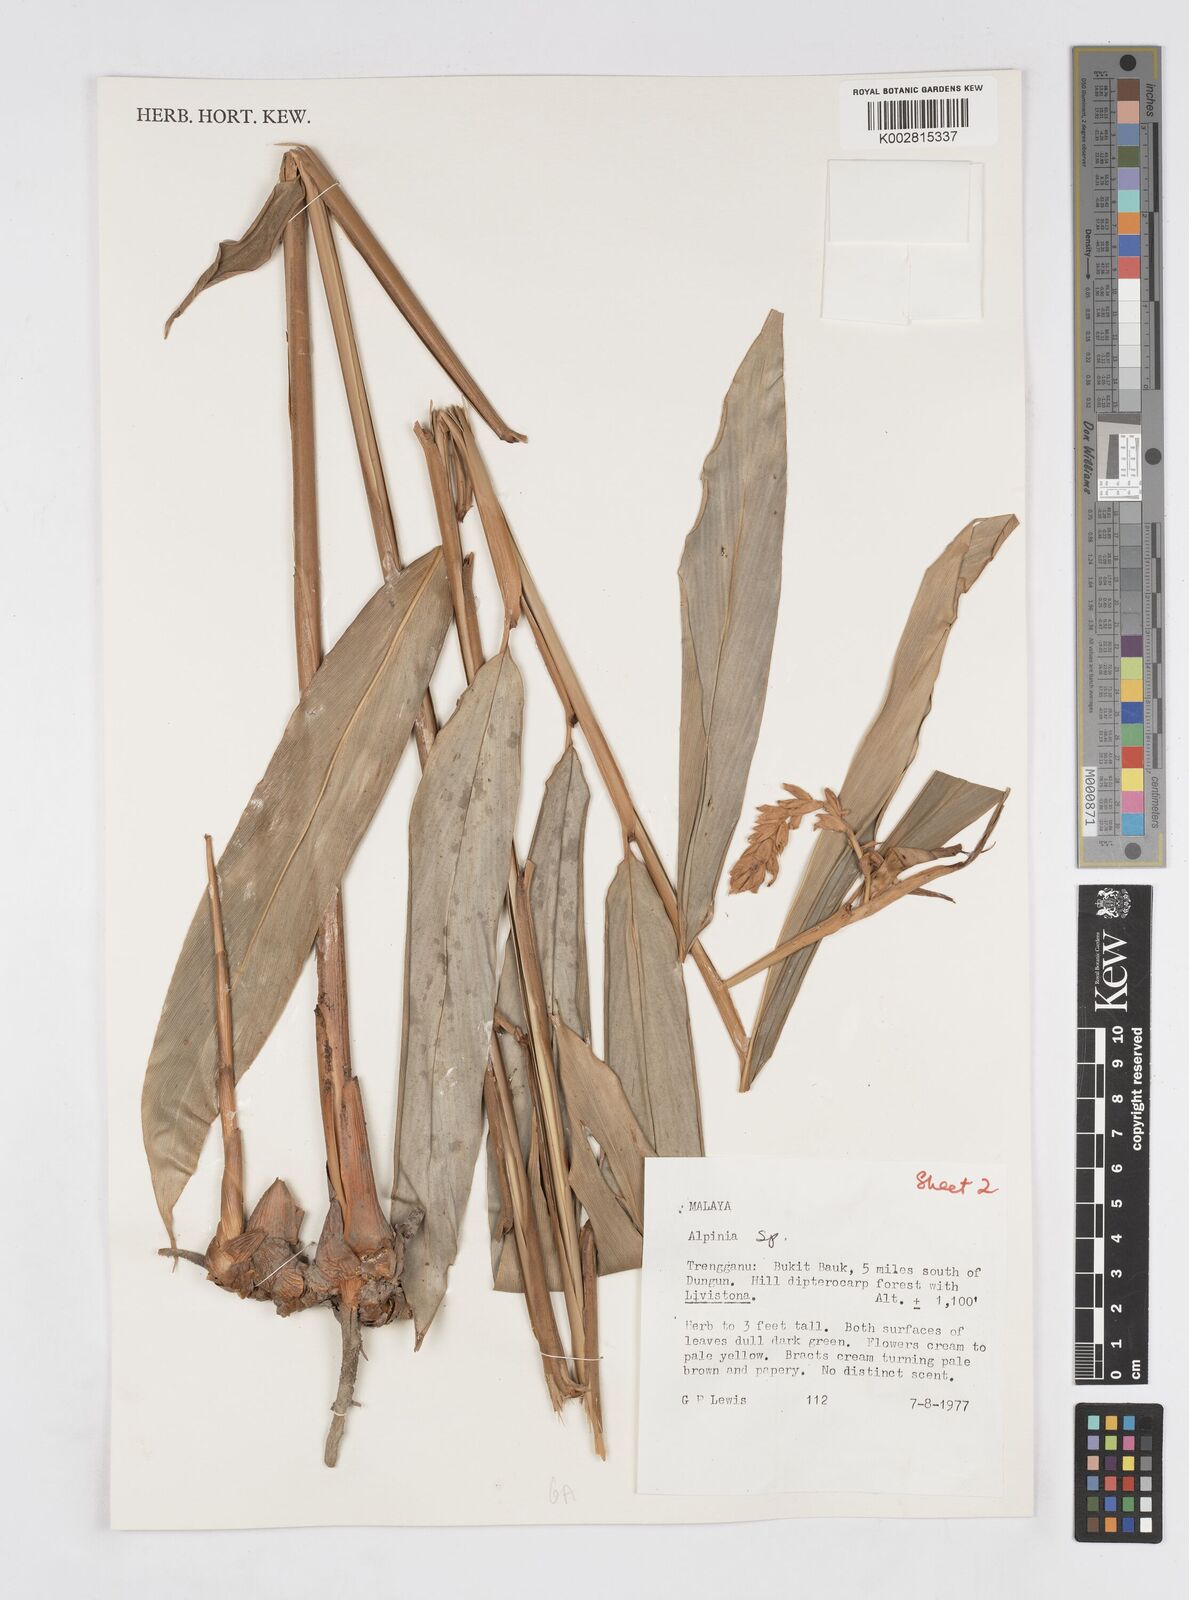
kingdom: Plantae
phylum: Tracheophyta
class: Liliopsida
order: Zingiberales
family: Zingiberaceae
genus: Alpinia
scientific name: Alpinia
